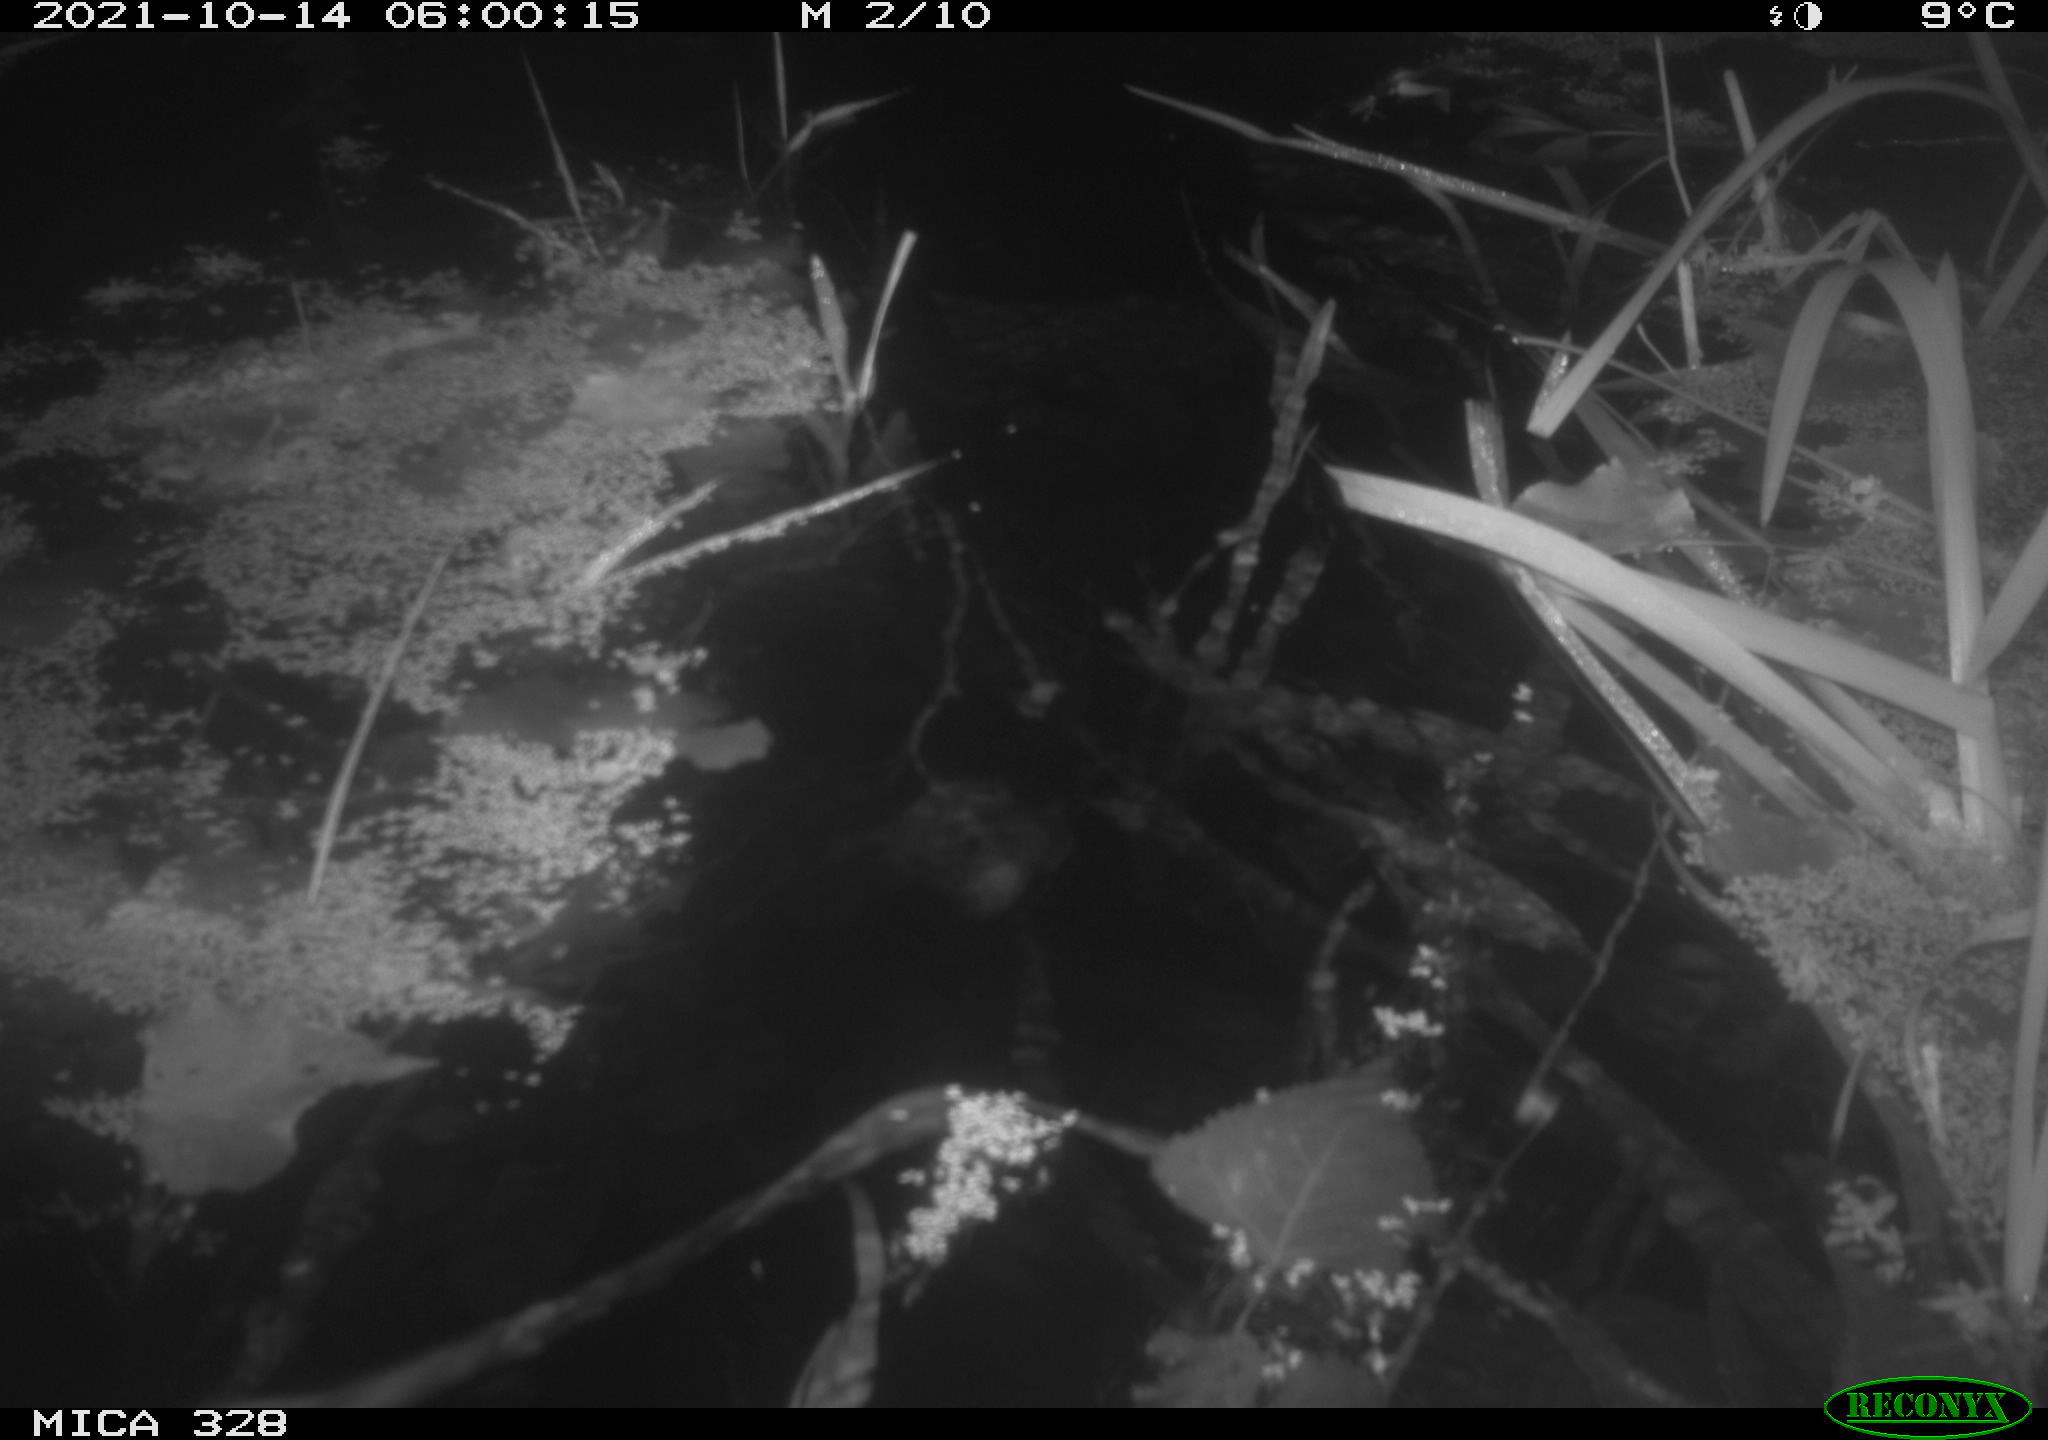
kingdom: Animalia
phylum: Chordata
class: Mammalia
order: Rodentia
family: Cricetidae
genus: Ondatra
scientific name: Ondatra zibethicus
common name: Muskrat
